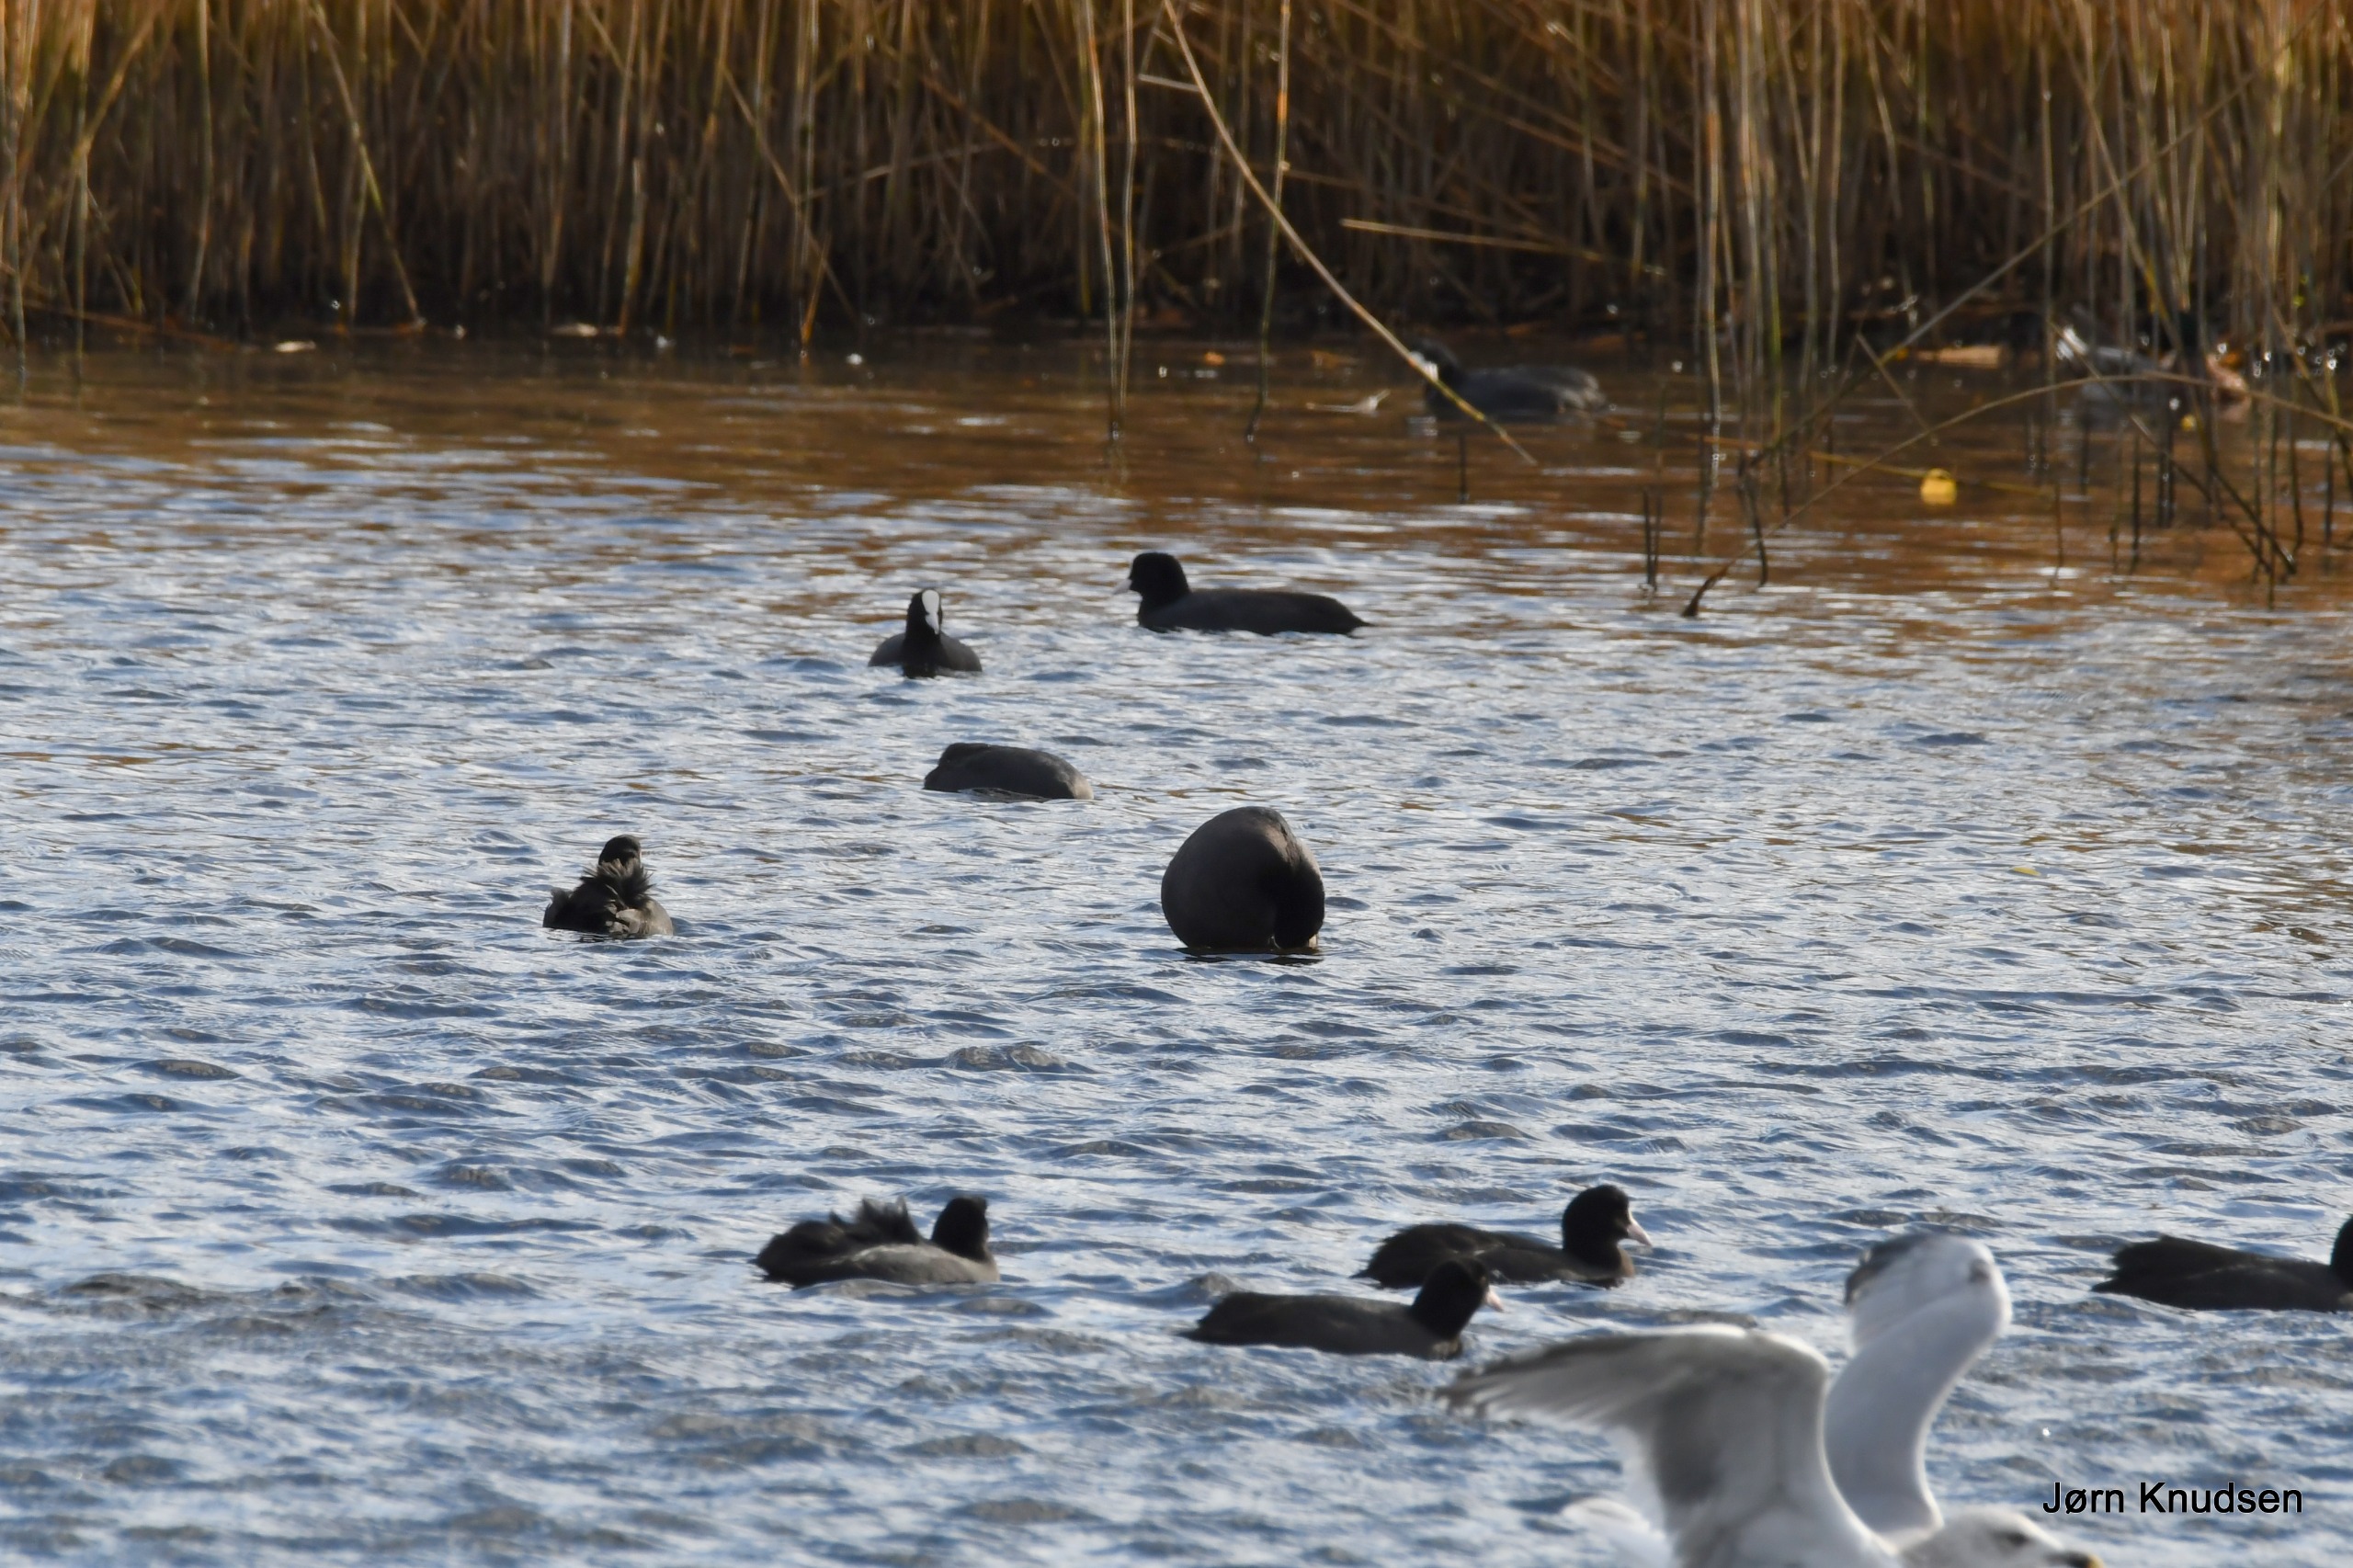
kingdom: Animalia
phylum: Chordata
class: Aves
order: Gruiformes
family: Rallidae
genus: Fulica
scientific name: Fulica atra
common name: Blishøne
